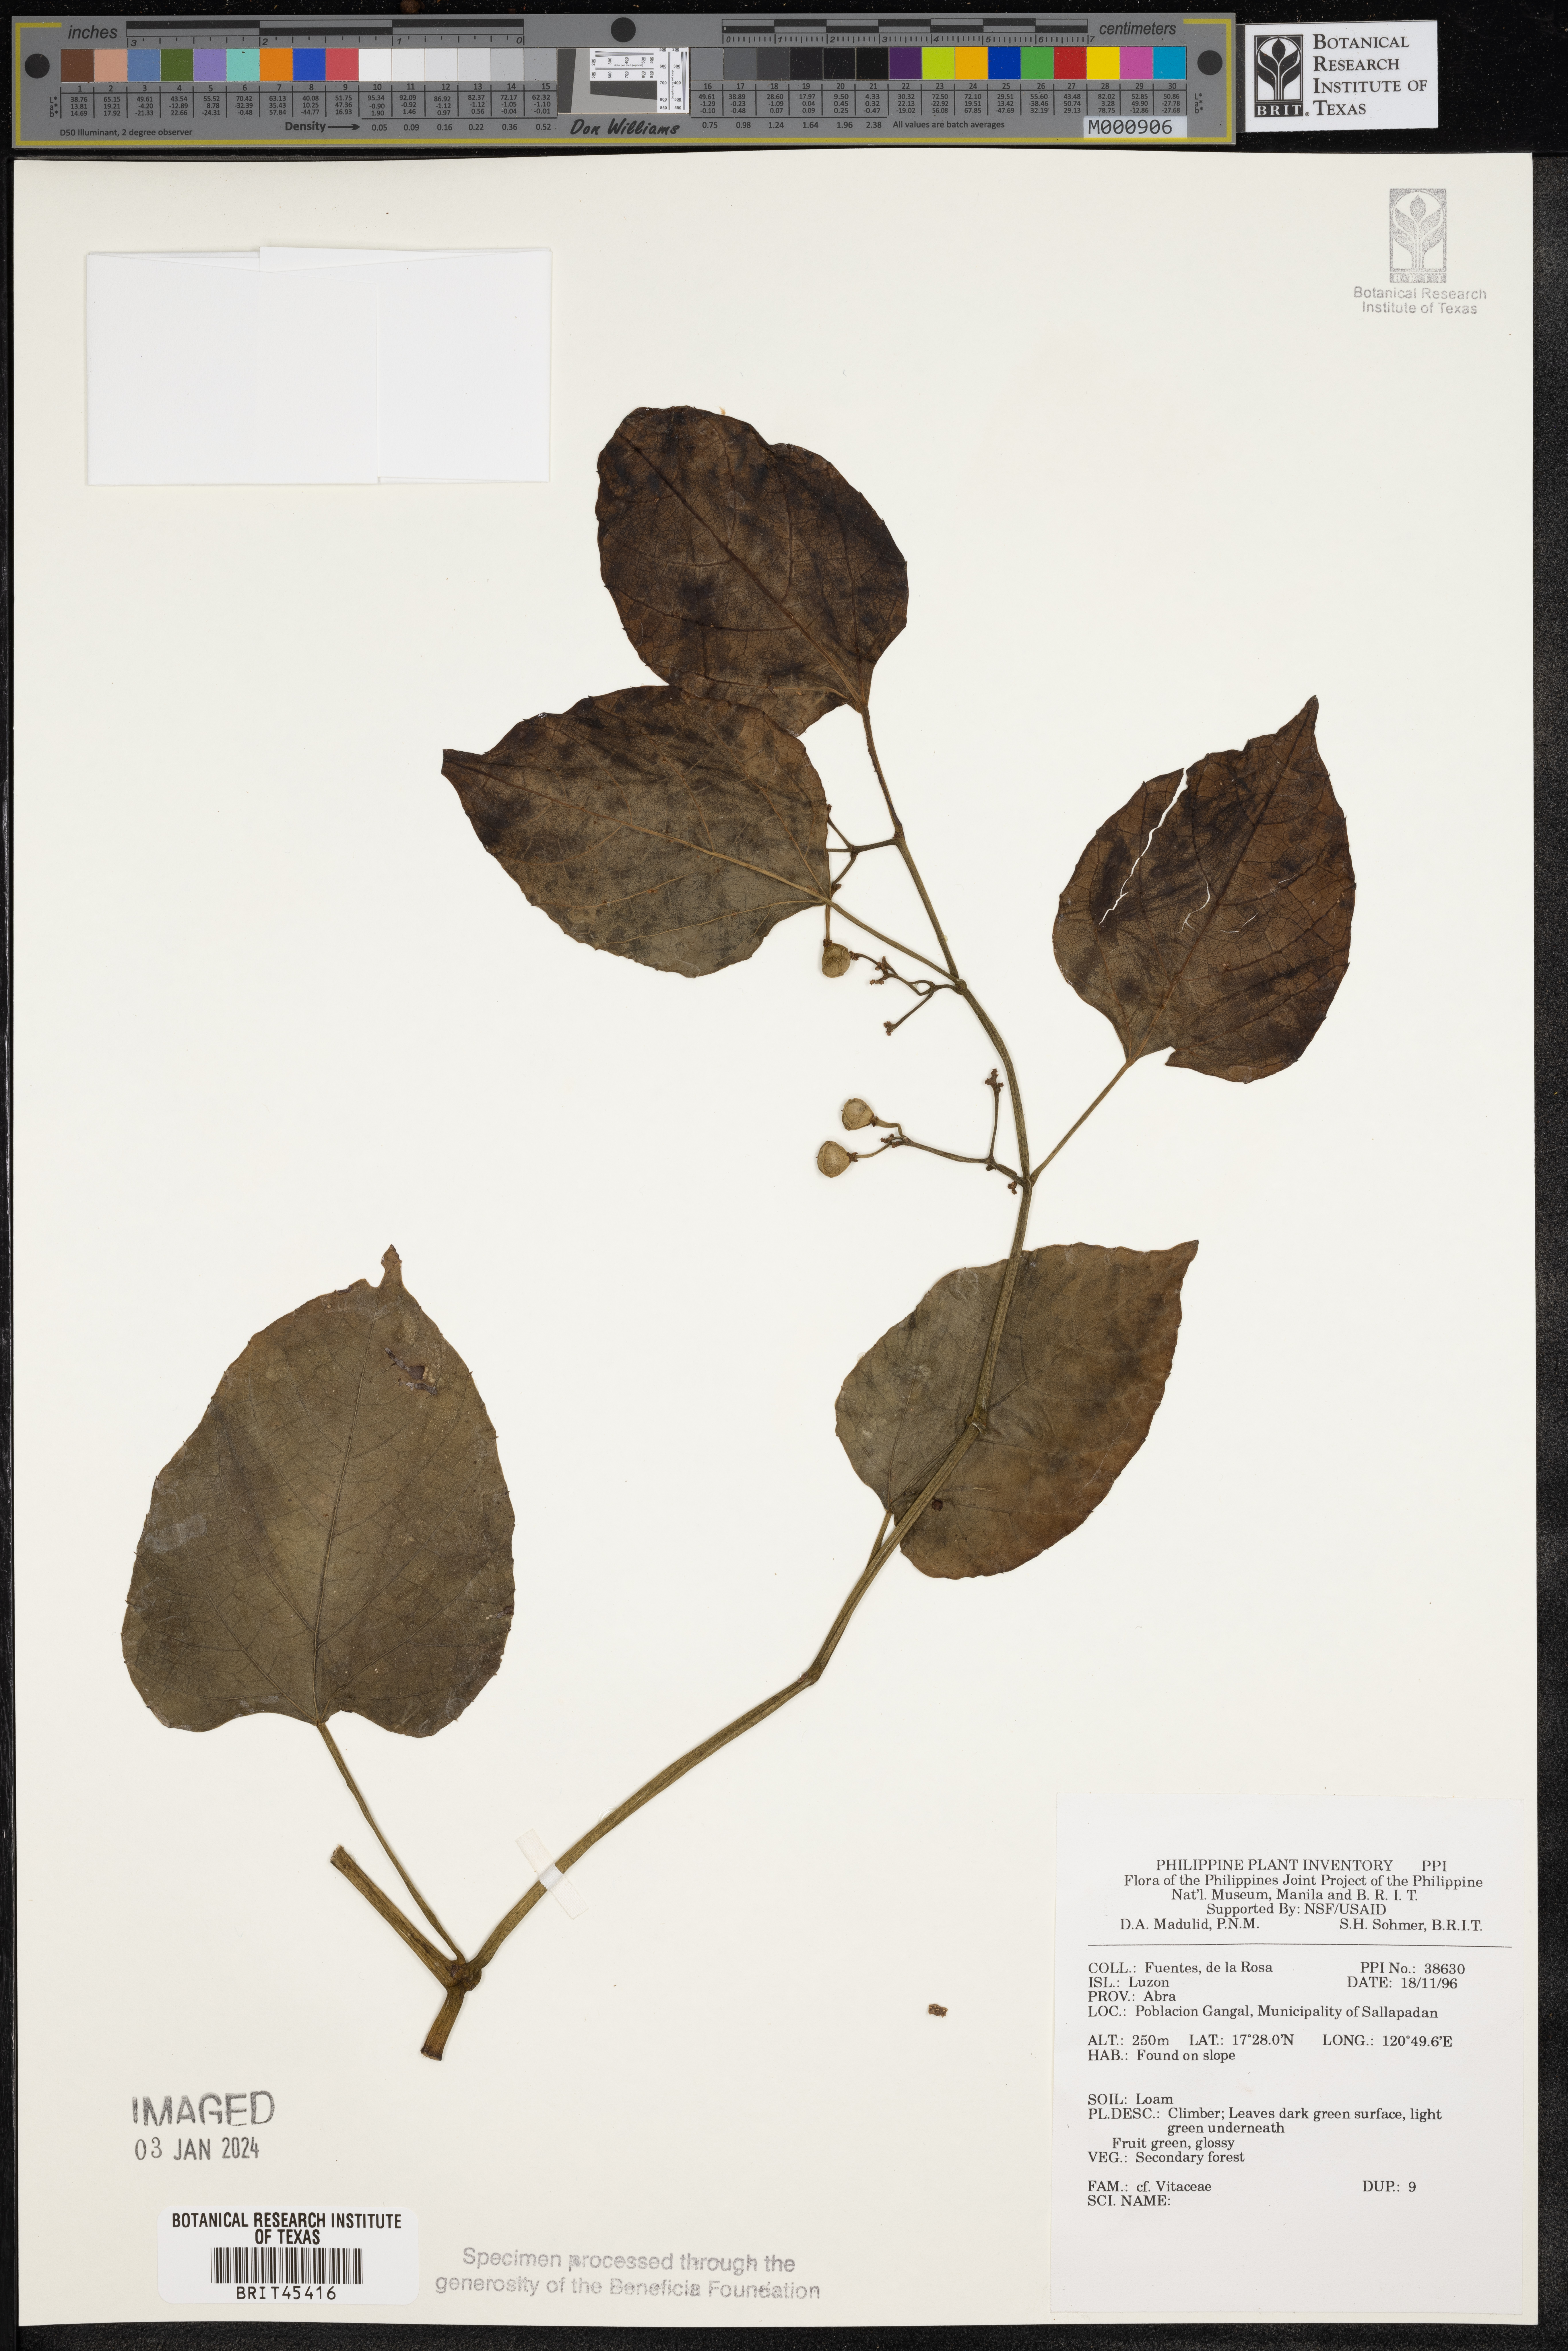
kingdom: Plantae
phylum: Tracheophyta
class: Magnoliopsida
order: Vitales
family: Vitaceae
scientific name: Vitaceae
